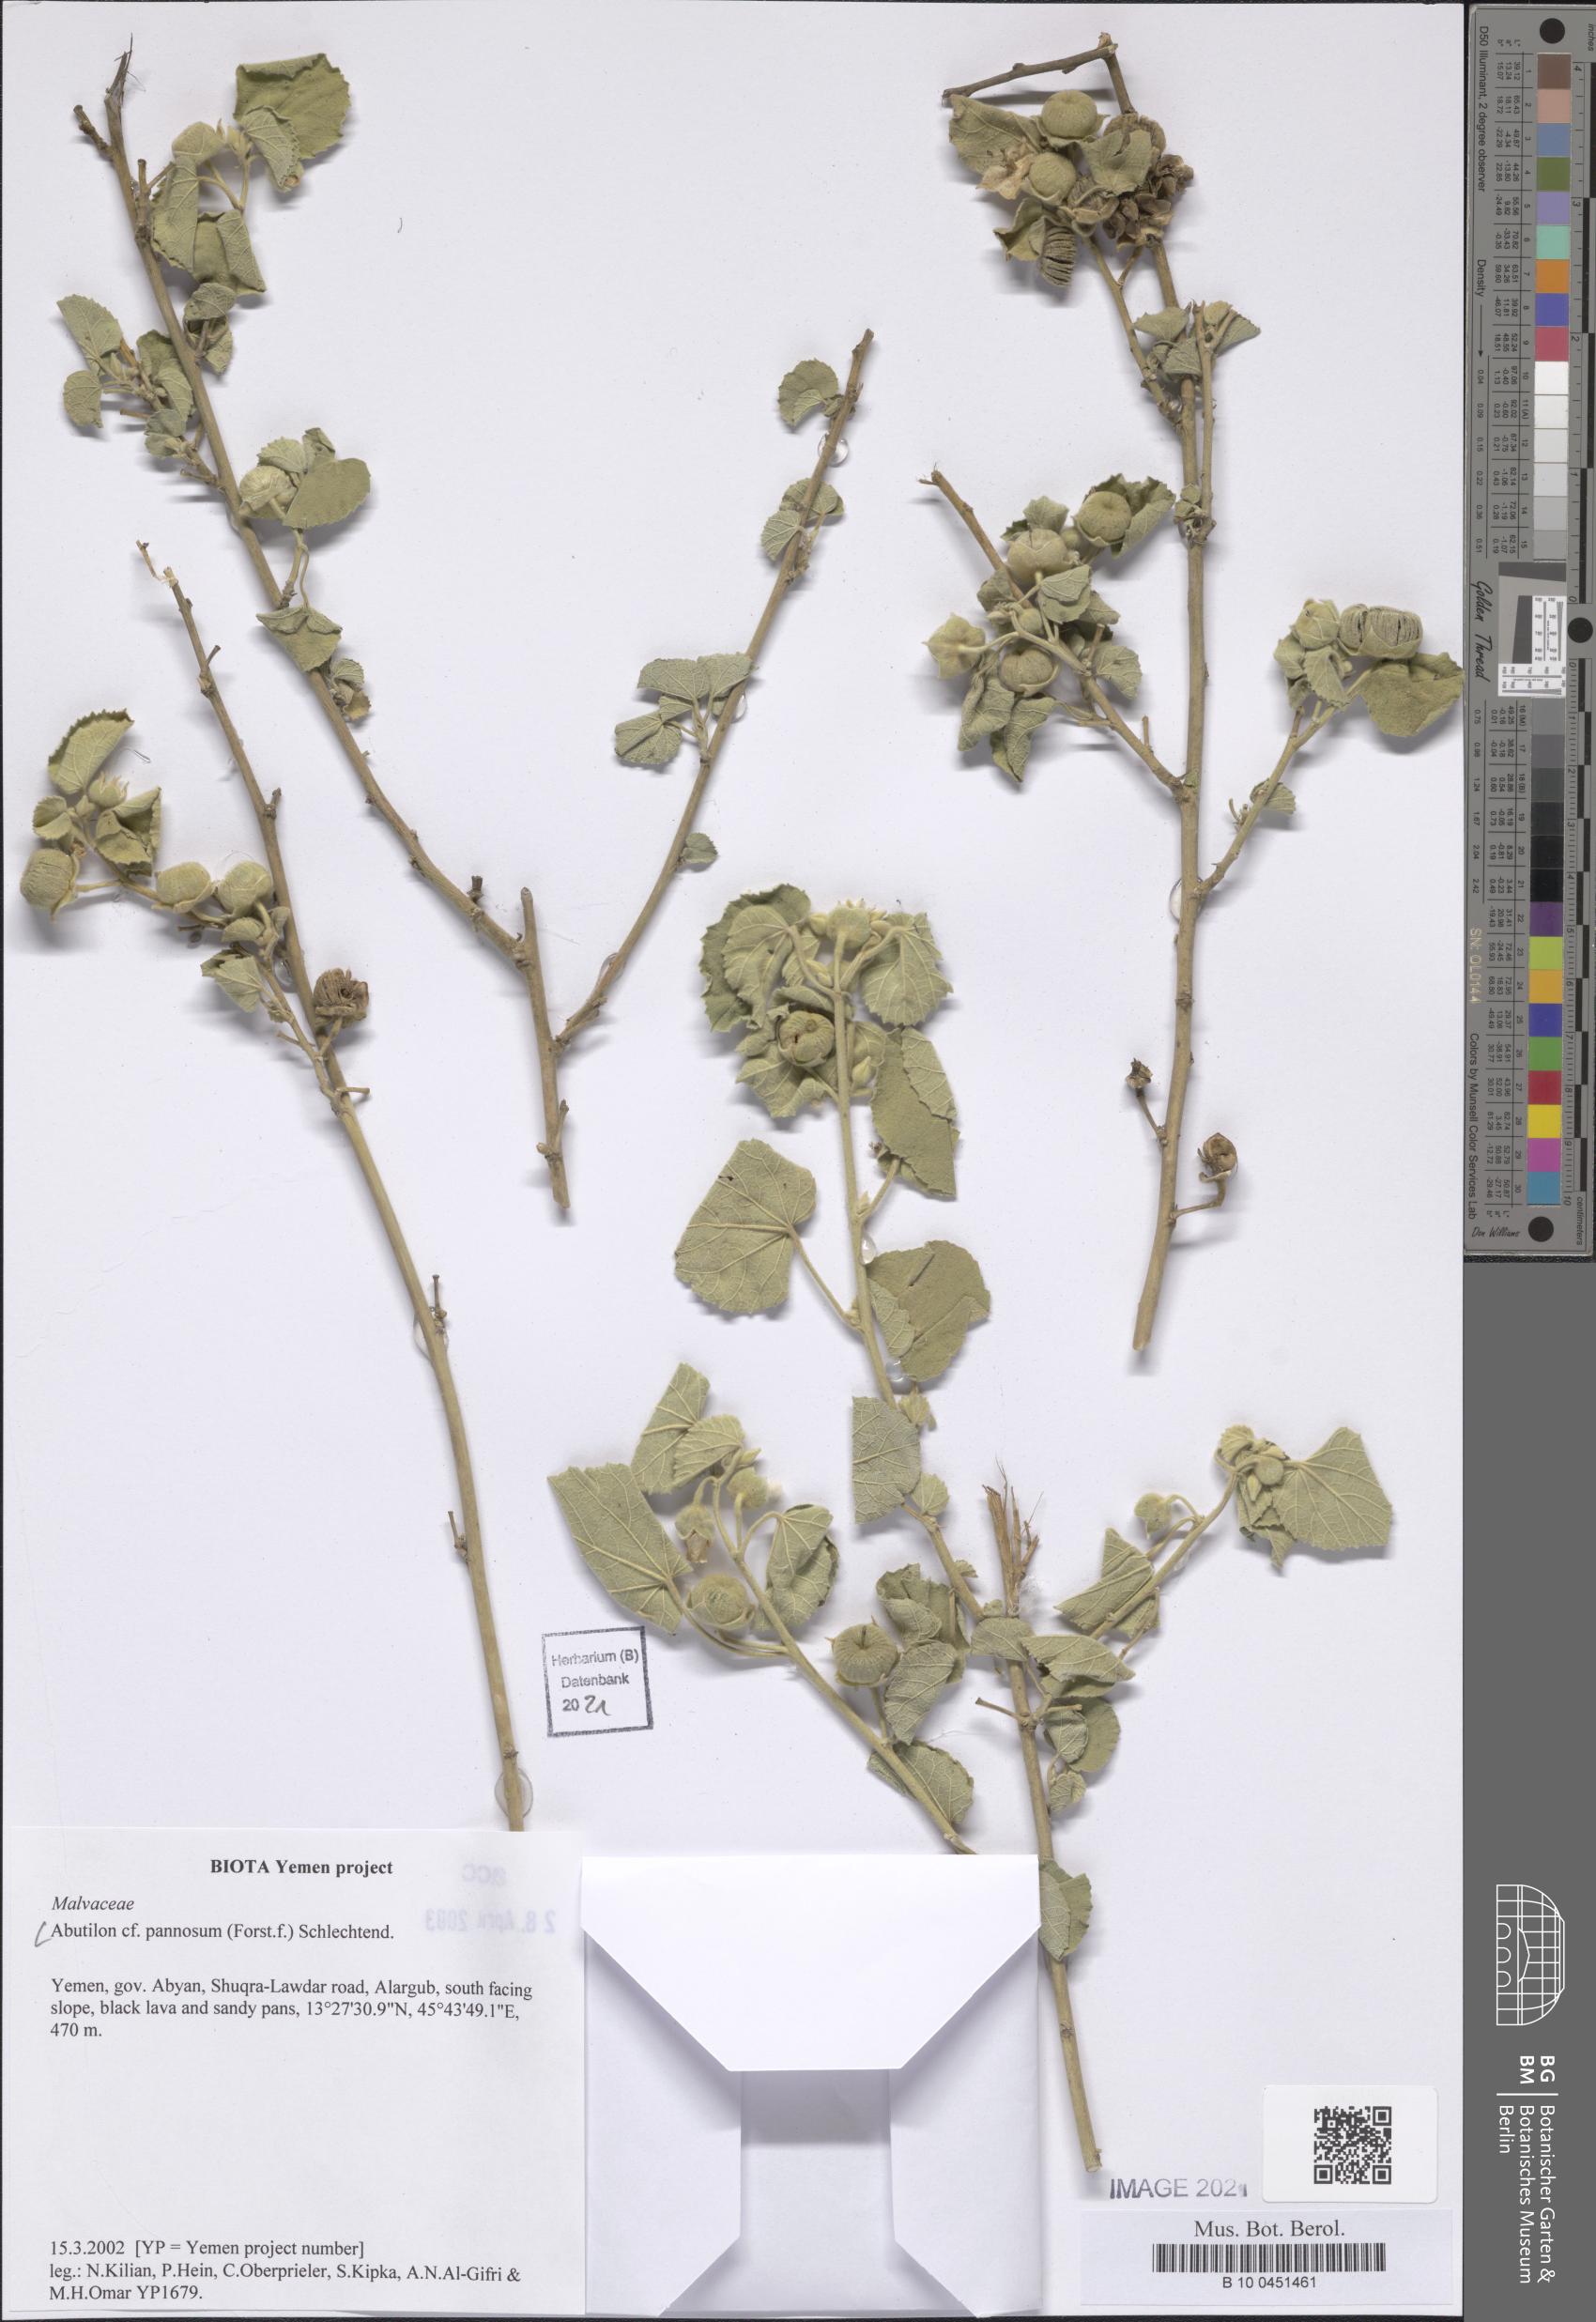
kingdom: Plantae
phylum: Tracheophyta
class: Magnoliopsida
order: Malvales
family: Malvaceae
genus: Abutilon
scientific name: Abutilon pannosum
